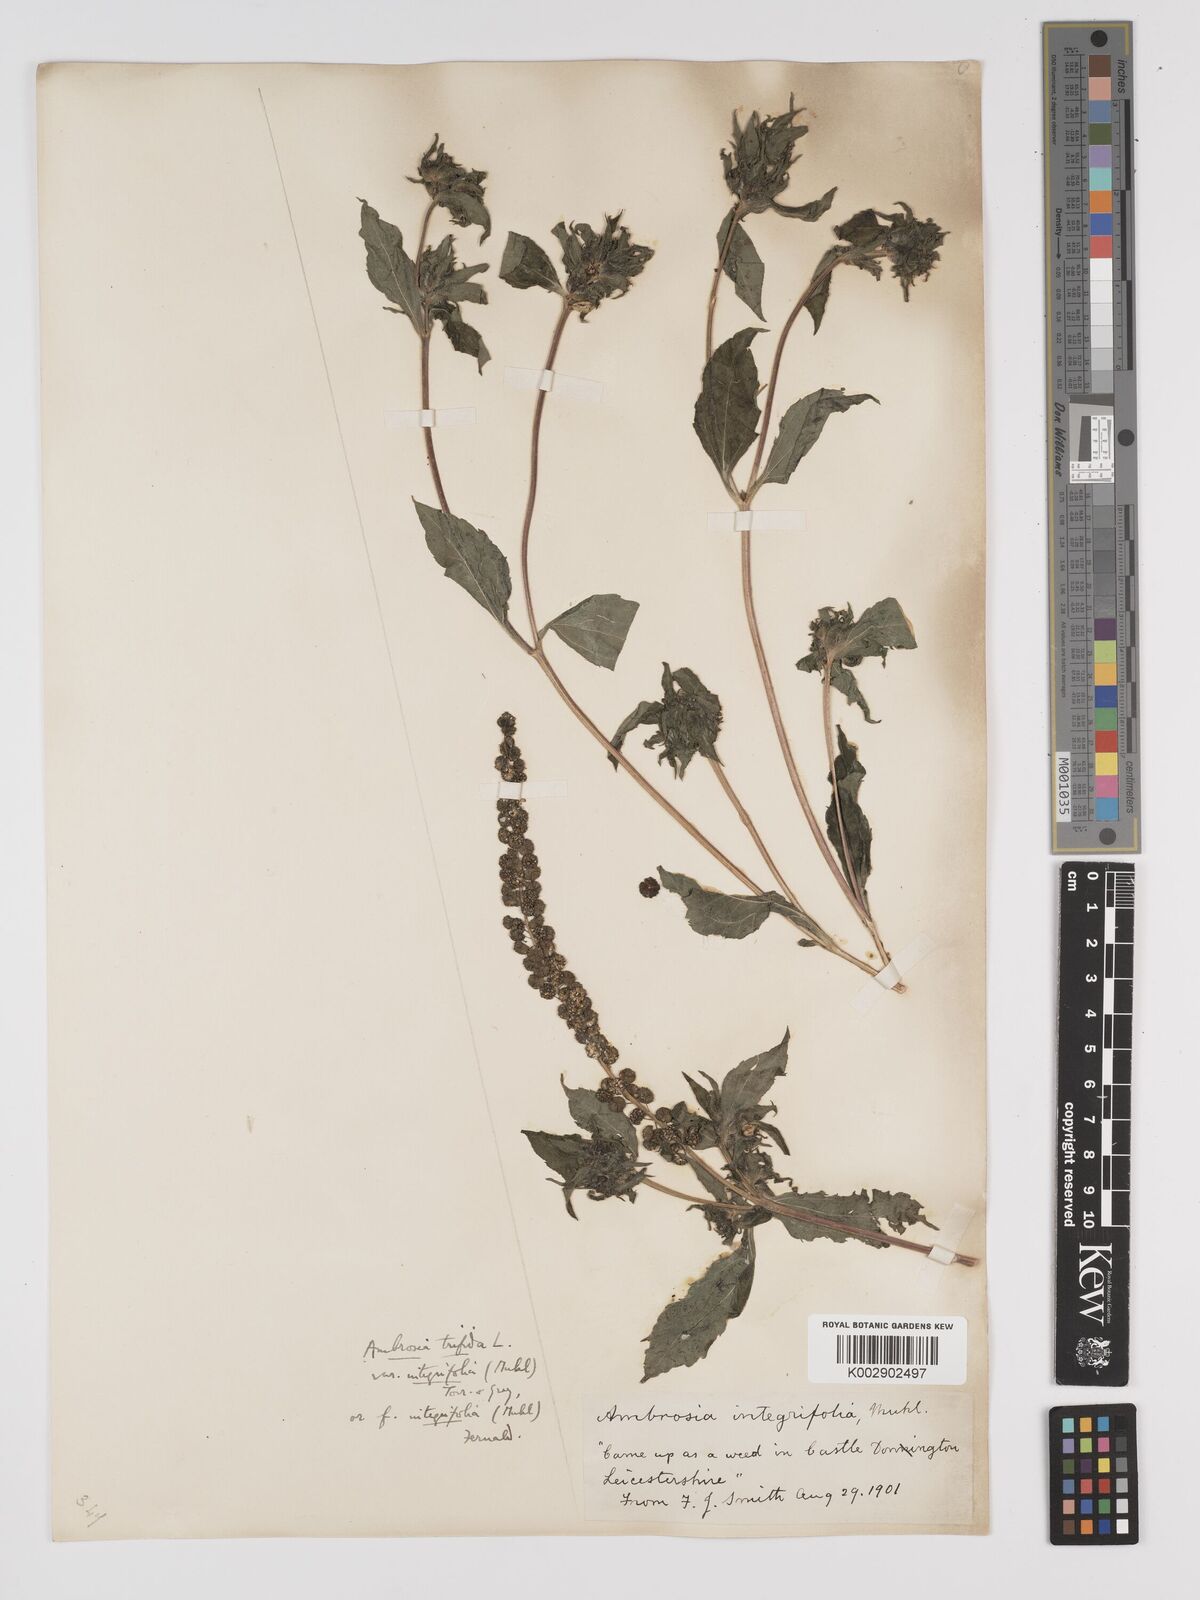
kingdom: Plantae
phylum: Tracheophyta
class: Magnoliopsida
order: Asterales
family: Asteraceae
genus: Ambrosia
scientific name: Ambrosia trifida
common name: Giant ragweed
